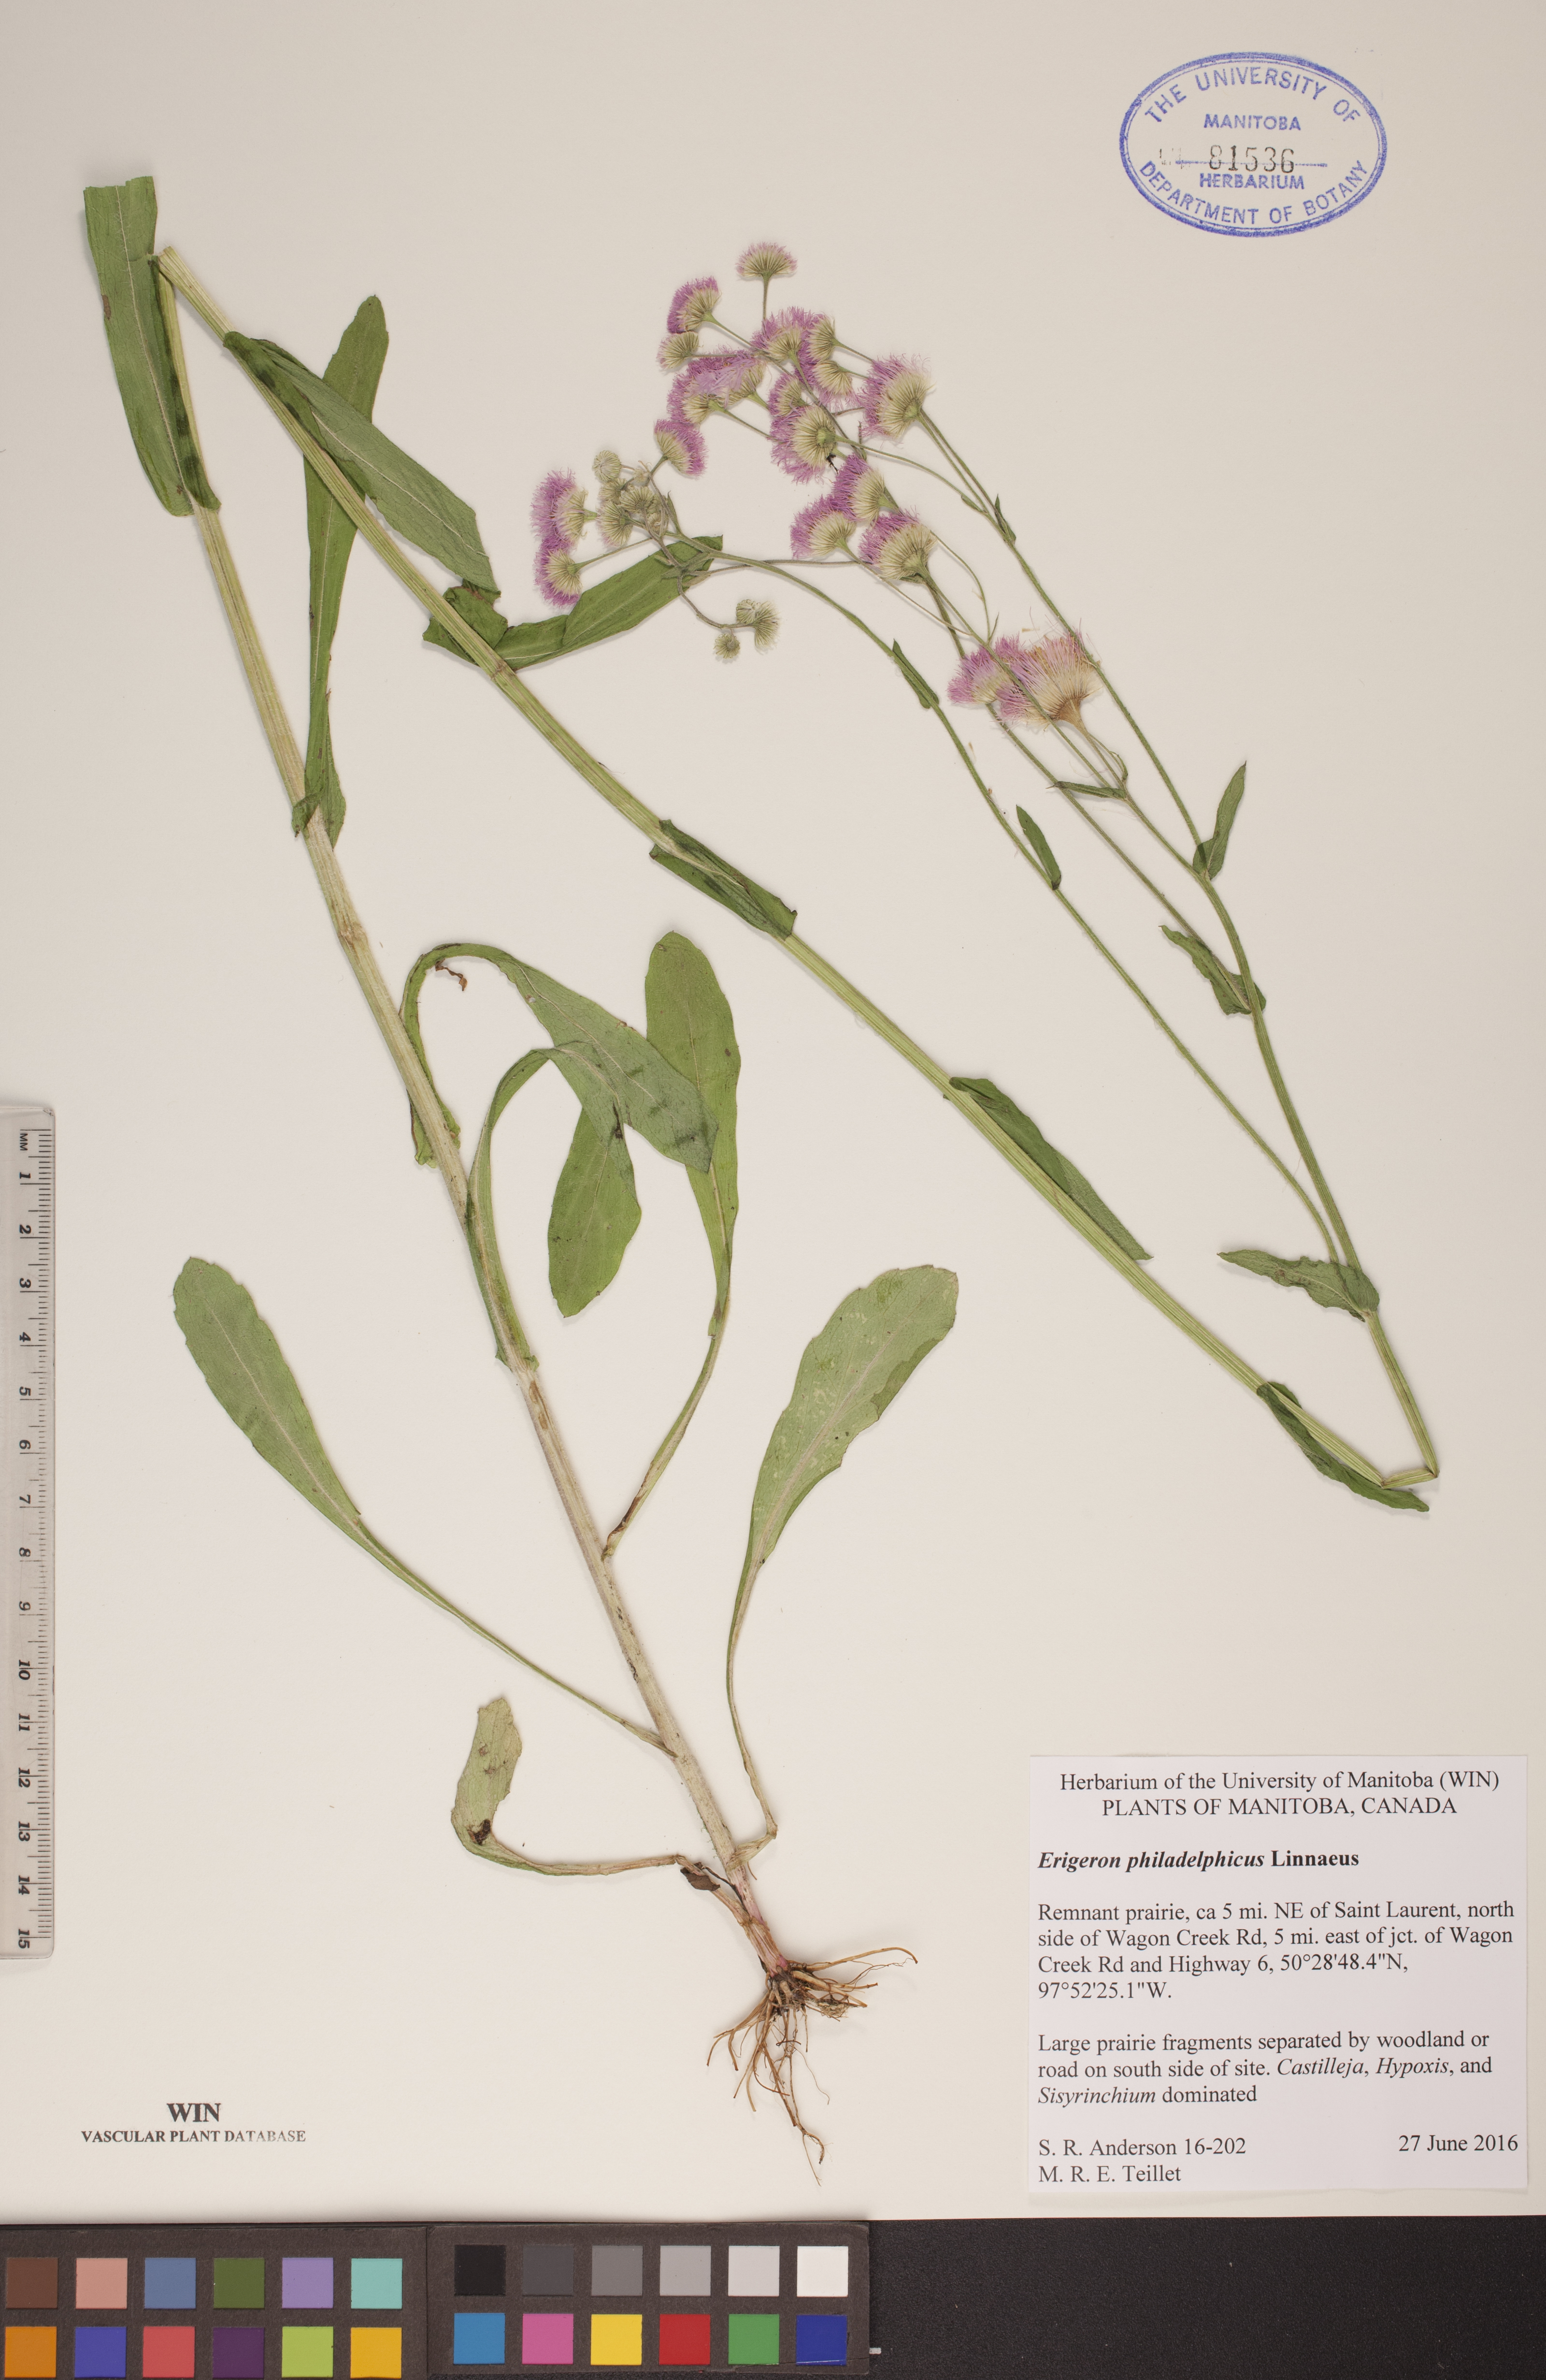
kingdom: Plantae
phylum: Tracheophyta
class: Magnoliopsida
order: Asterales
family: Asteraceae
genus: Erigeron
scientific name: Erigeron philadelphicus
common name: Robin's-plantain
